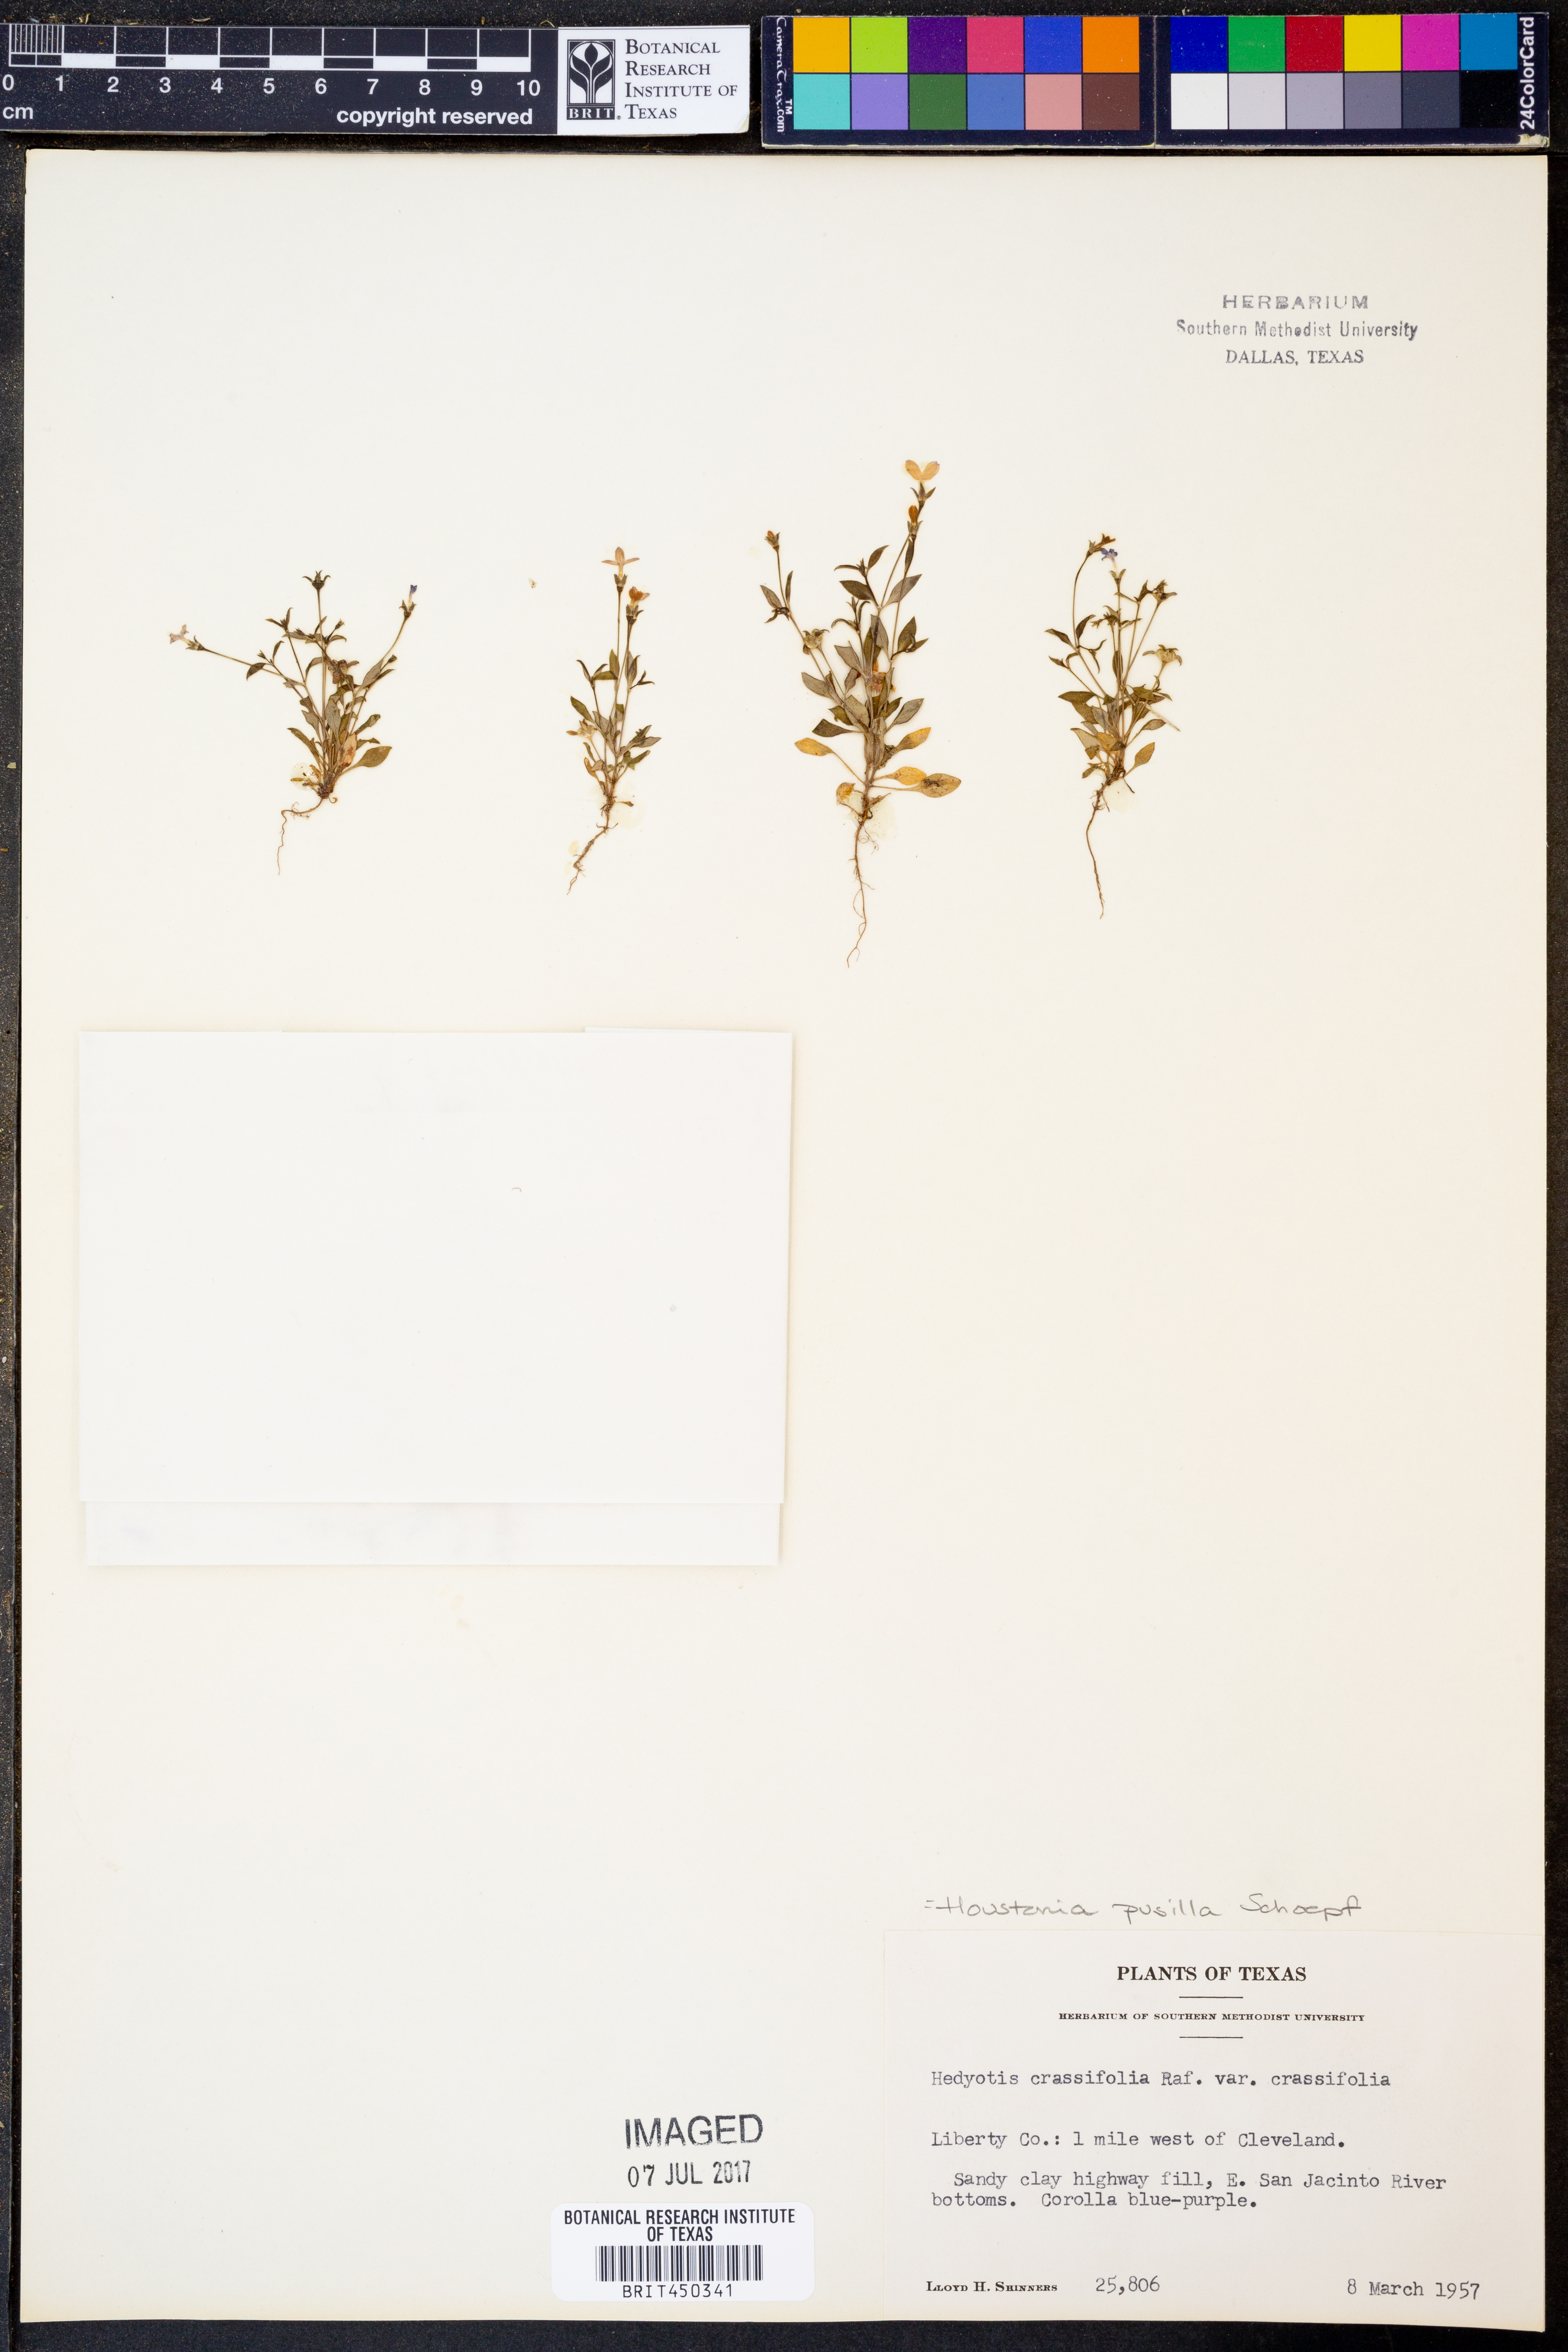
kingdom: Plantae
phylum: Tracheophyta
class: Magnoliopsida
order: Gentianales
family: Rubiaceae
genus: Hedyotis
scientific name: Hedyotis crassifolia
